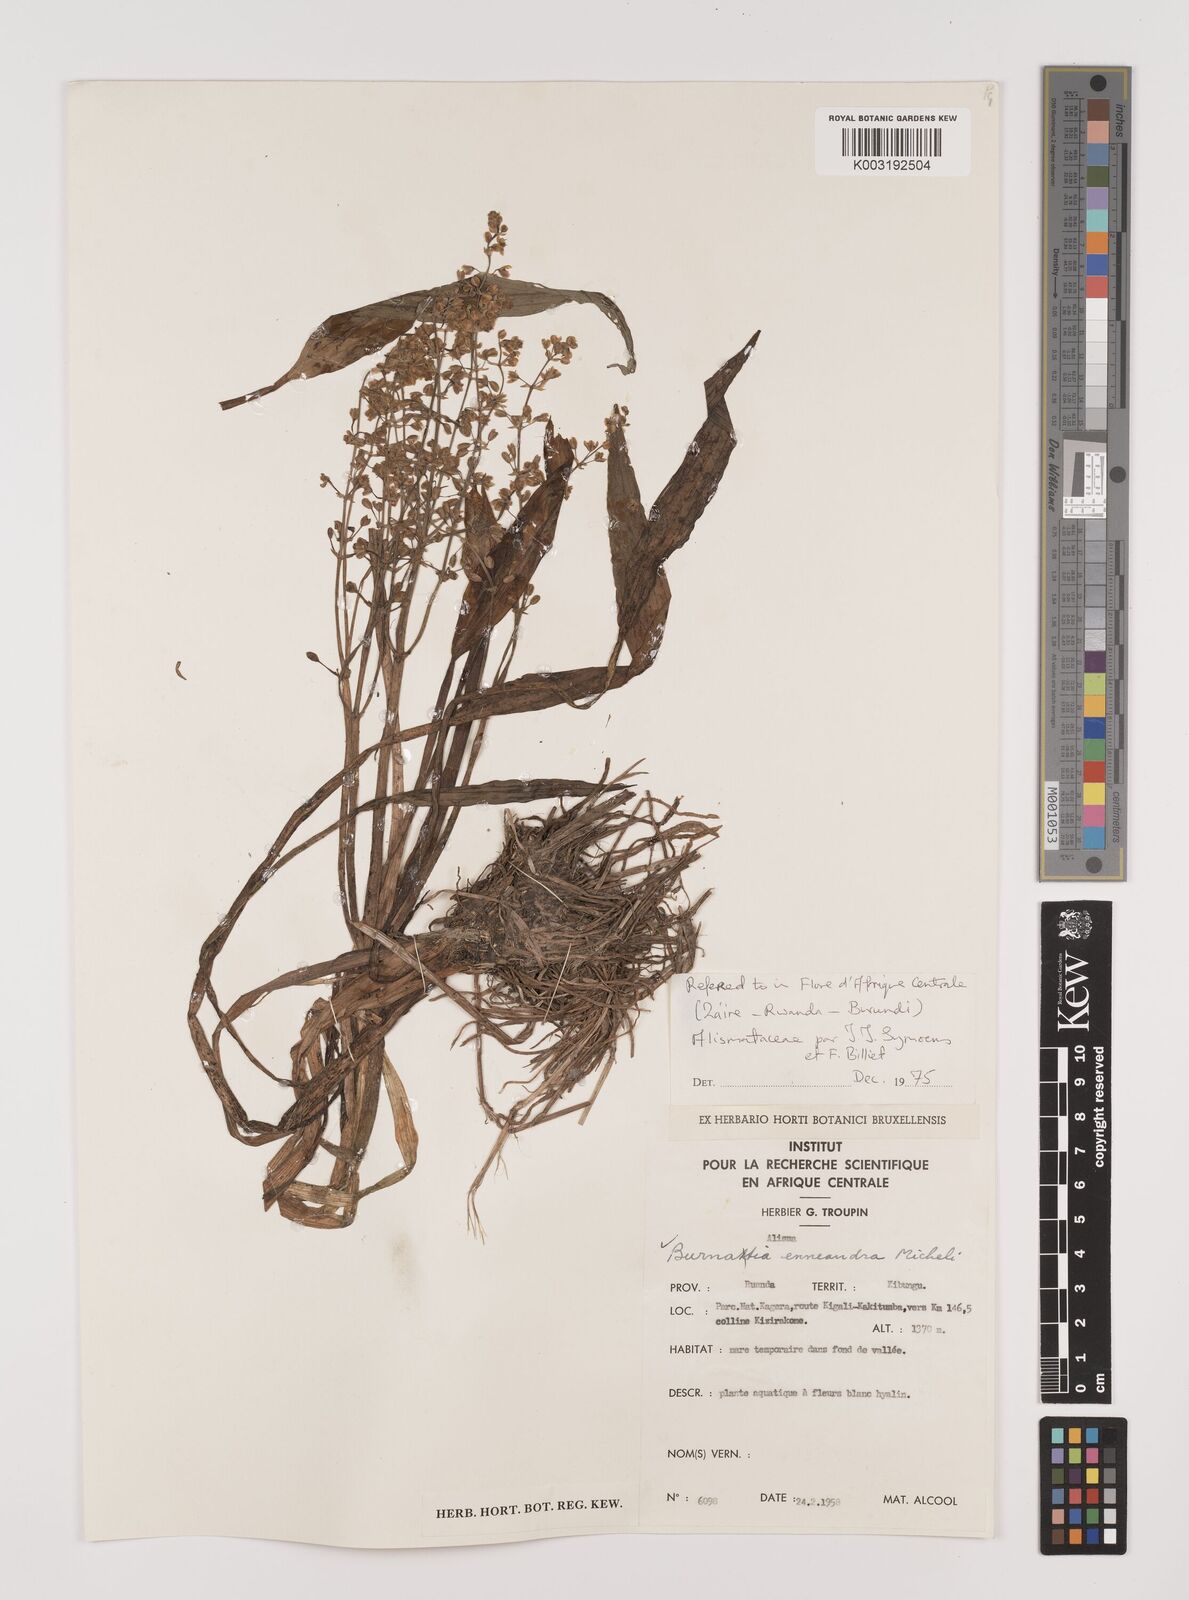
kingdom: Plantae
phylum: Tracheophyta
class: Liliopsida
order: Alismatales
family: Alismataceae
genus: Burnatia
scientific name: Burnatia enneandra
